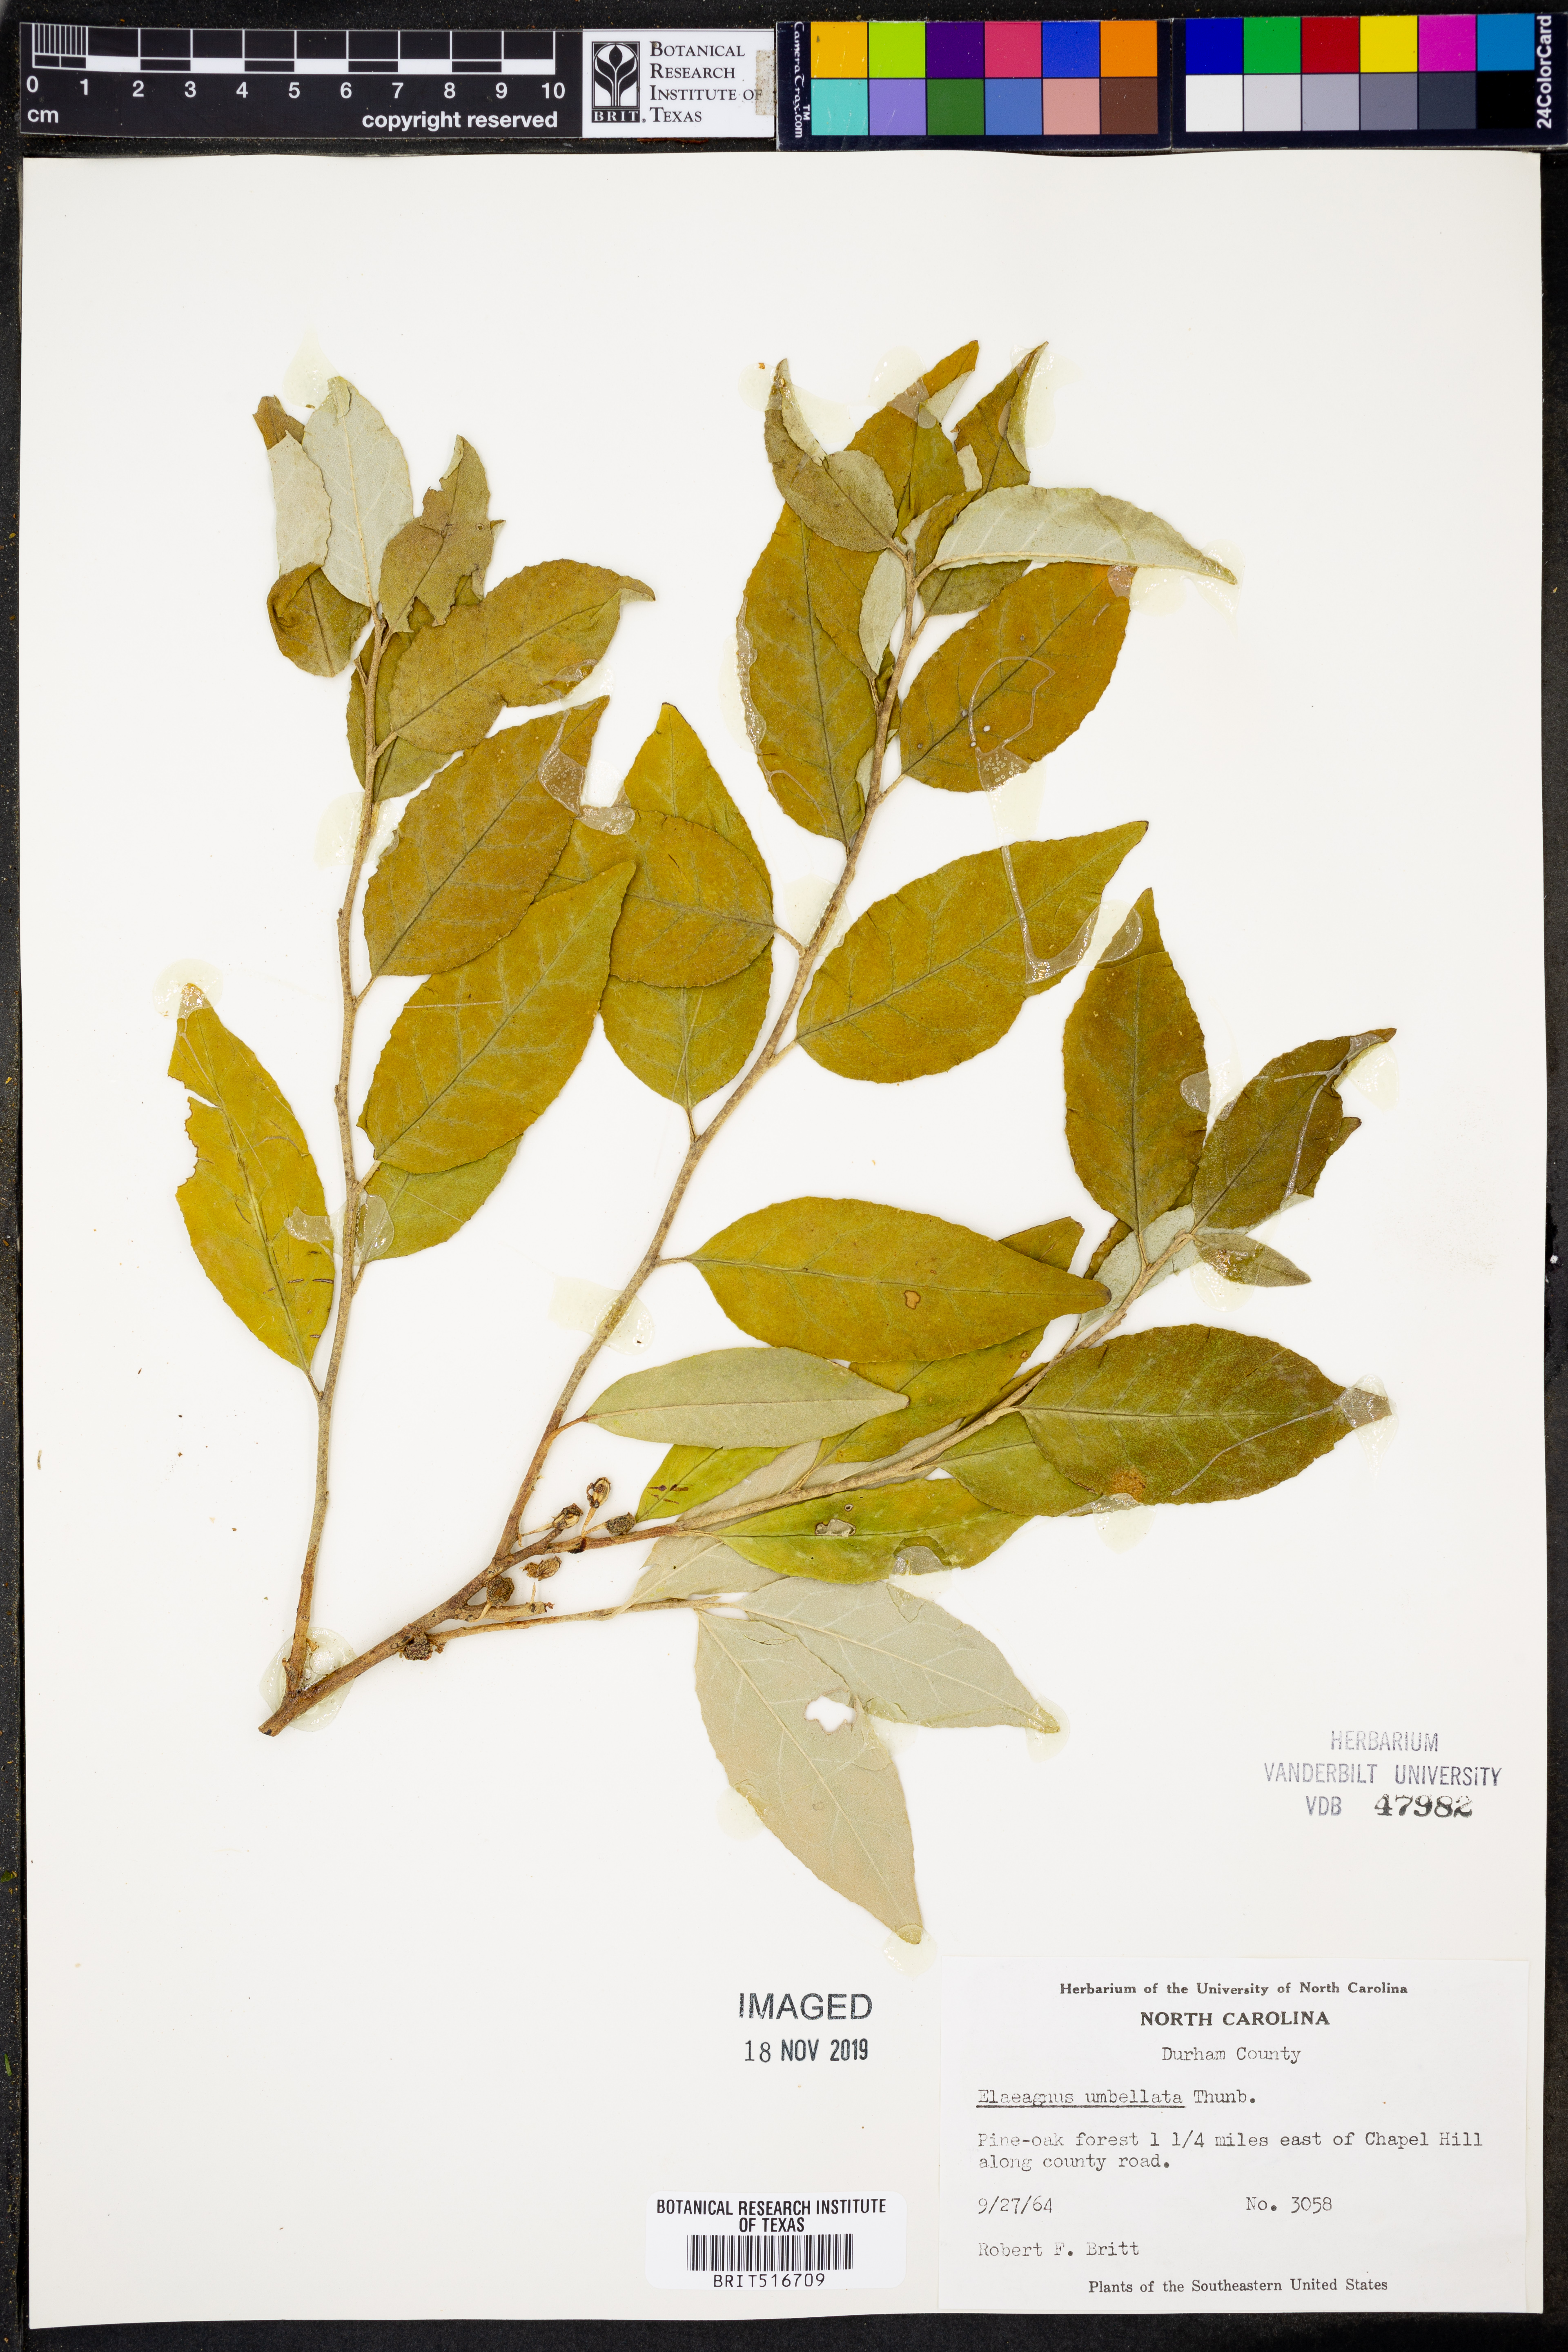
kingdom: Plantae
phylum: Tracheophyta
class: Magnoliopsida
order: Rosales
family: Elaeagnaceae
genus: Elaeagnus
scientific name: Elaeagnus umbellata
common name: Autumn olive
